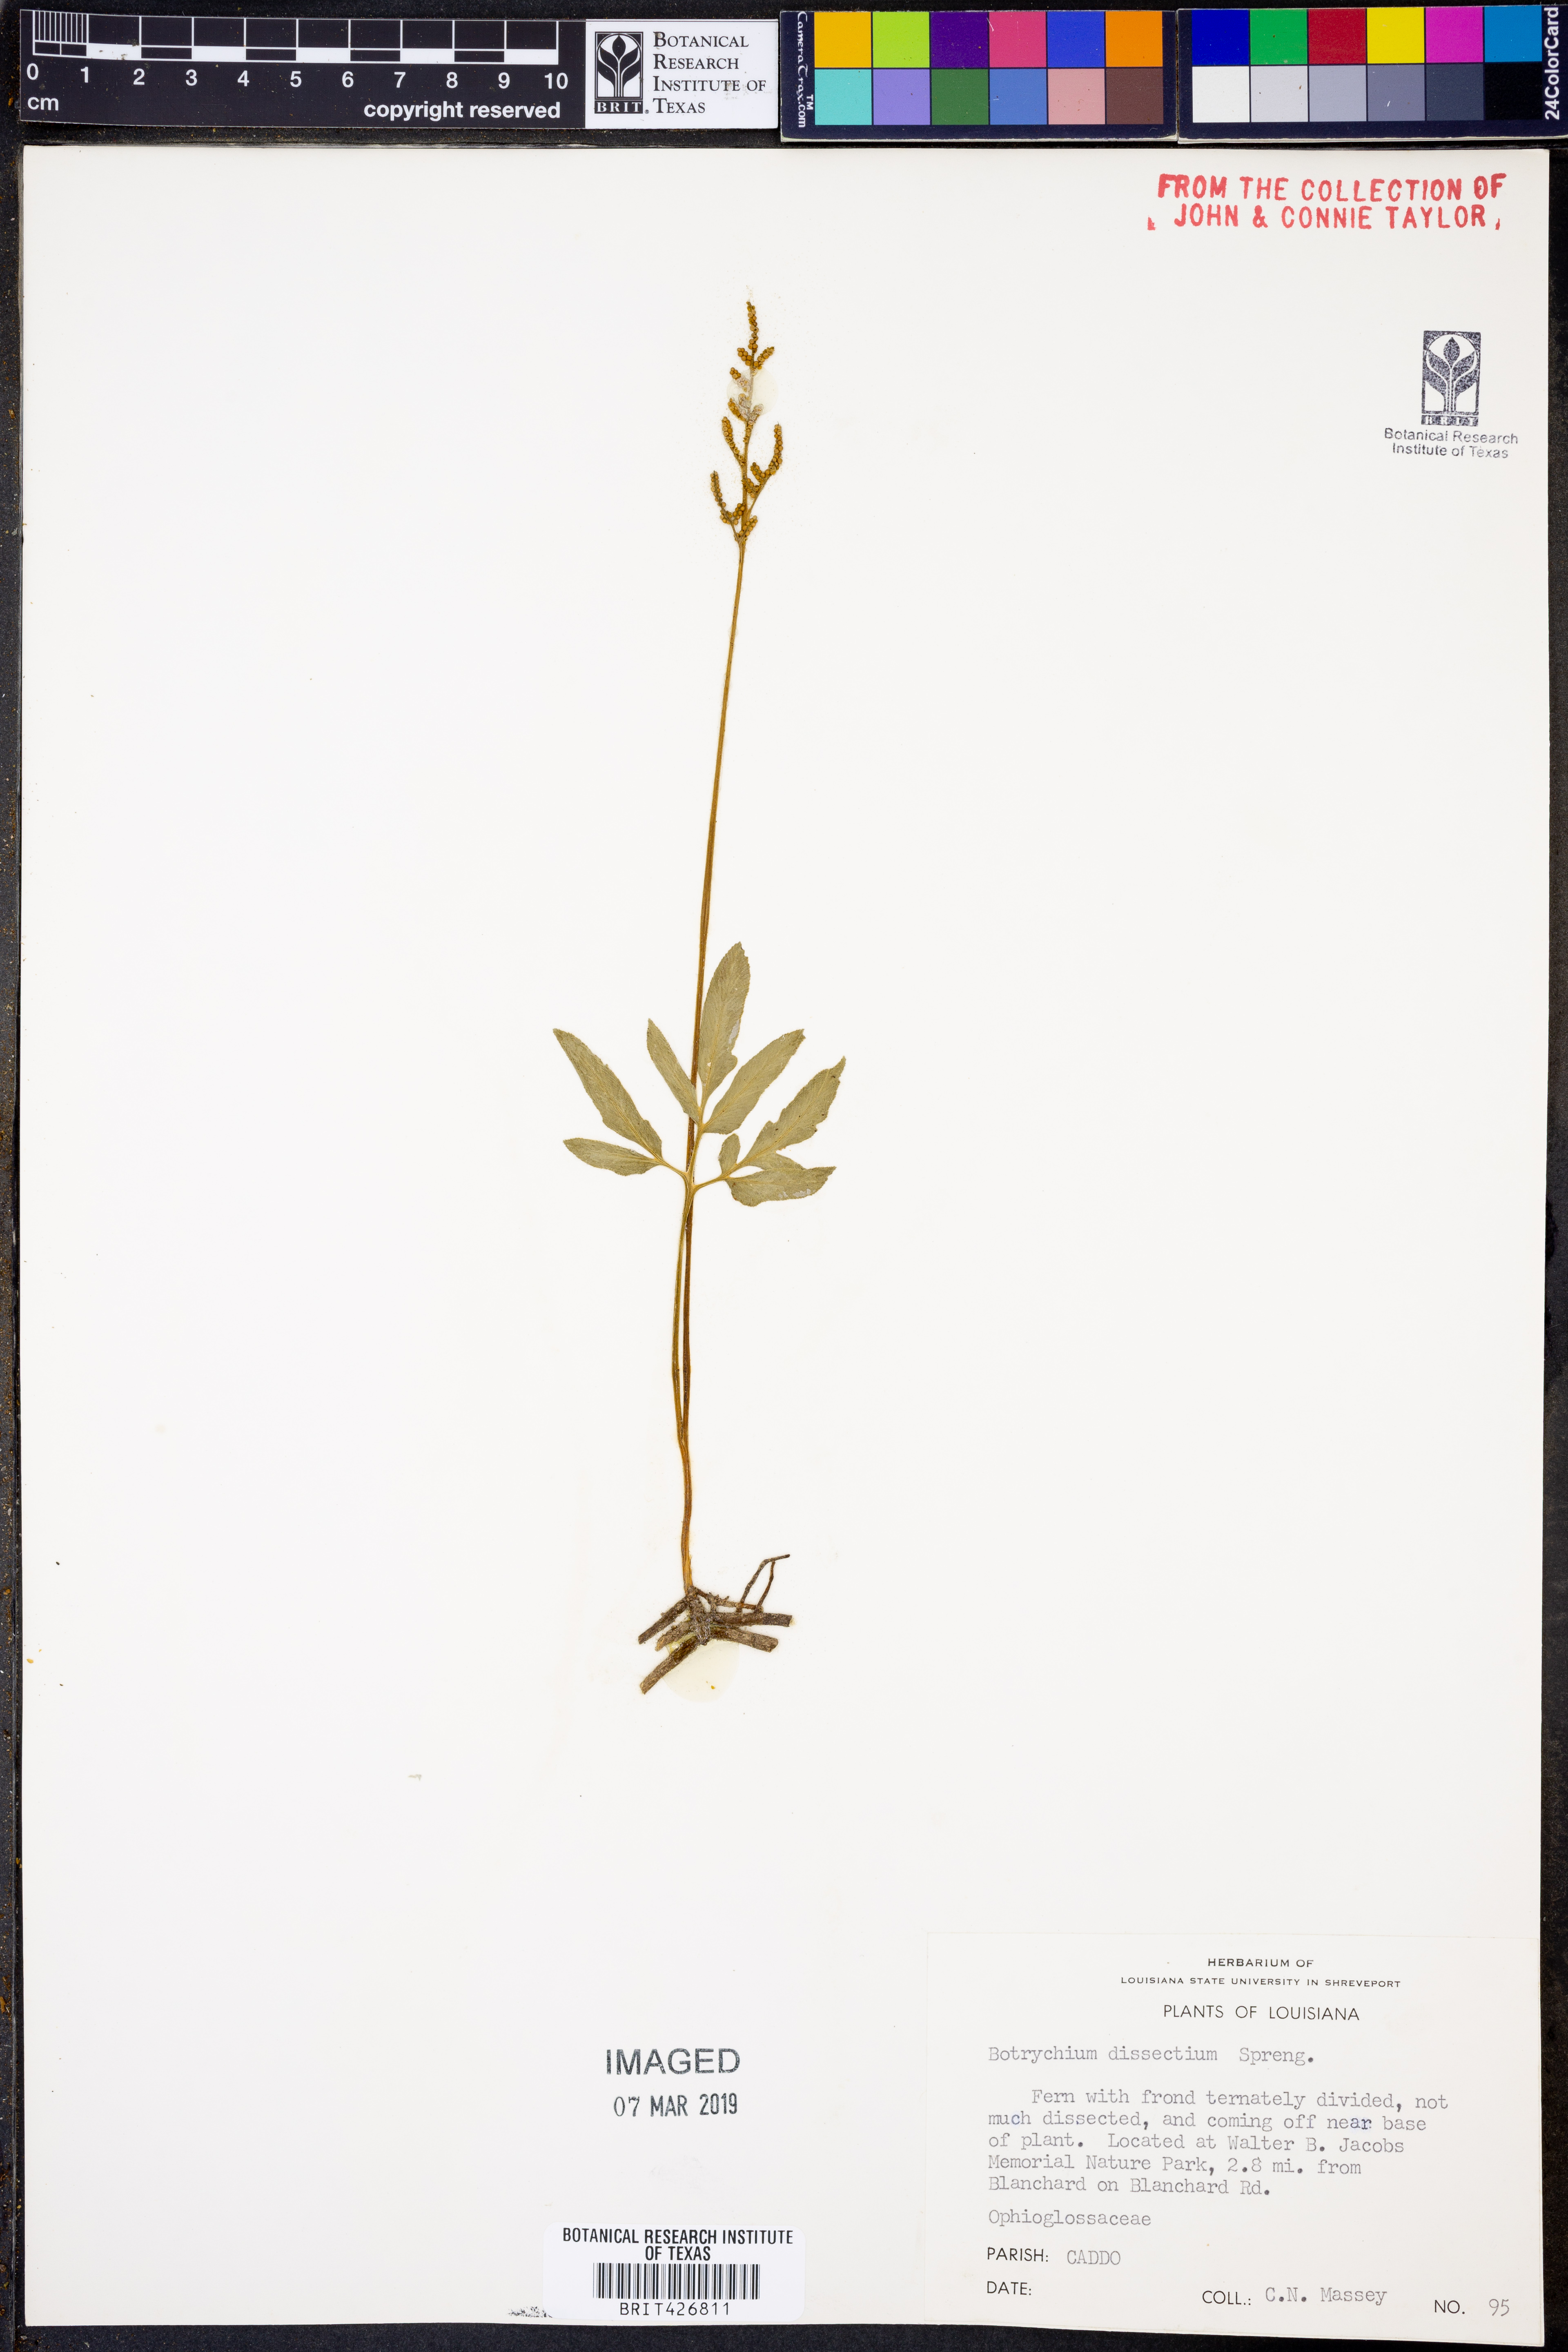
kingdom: Plantae
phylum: Tracheophyta
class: Polypodiopsida
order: Ophioglossales
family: Ophioglossaceae
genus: Sceptridium
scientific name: Sceptridium dissectum
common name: Cut-leaved grapefern
